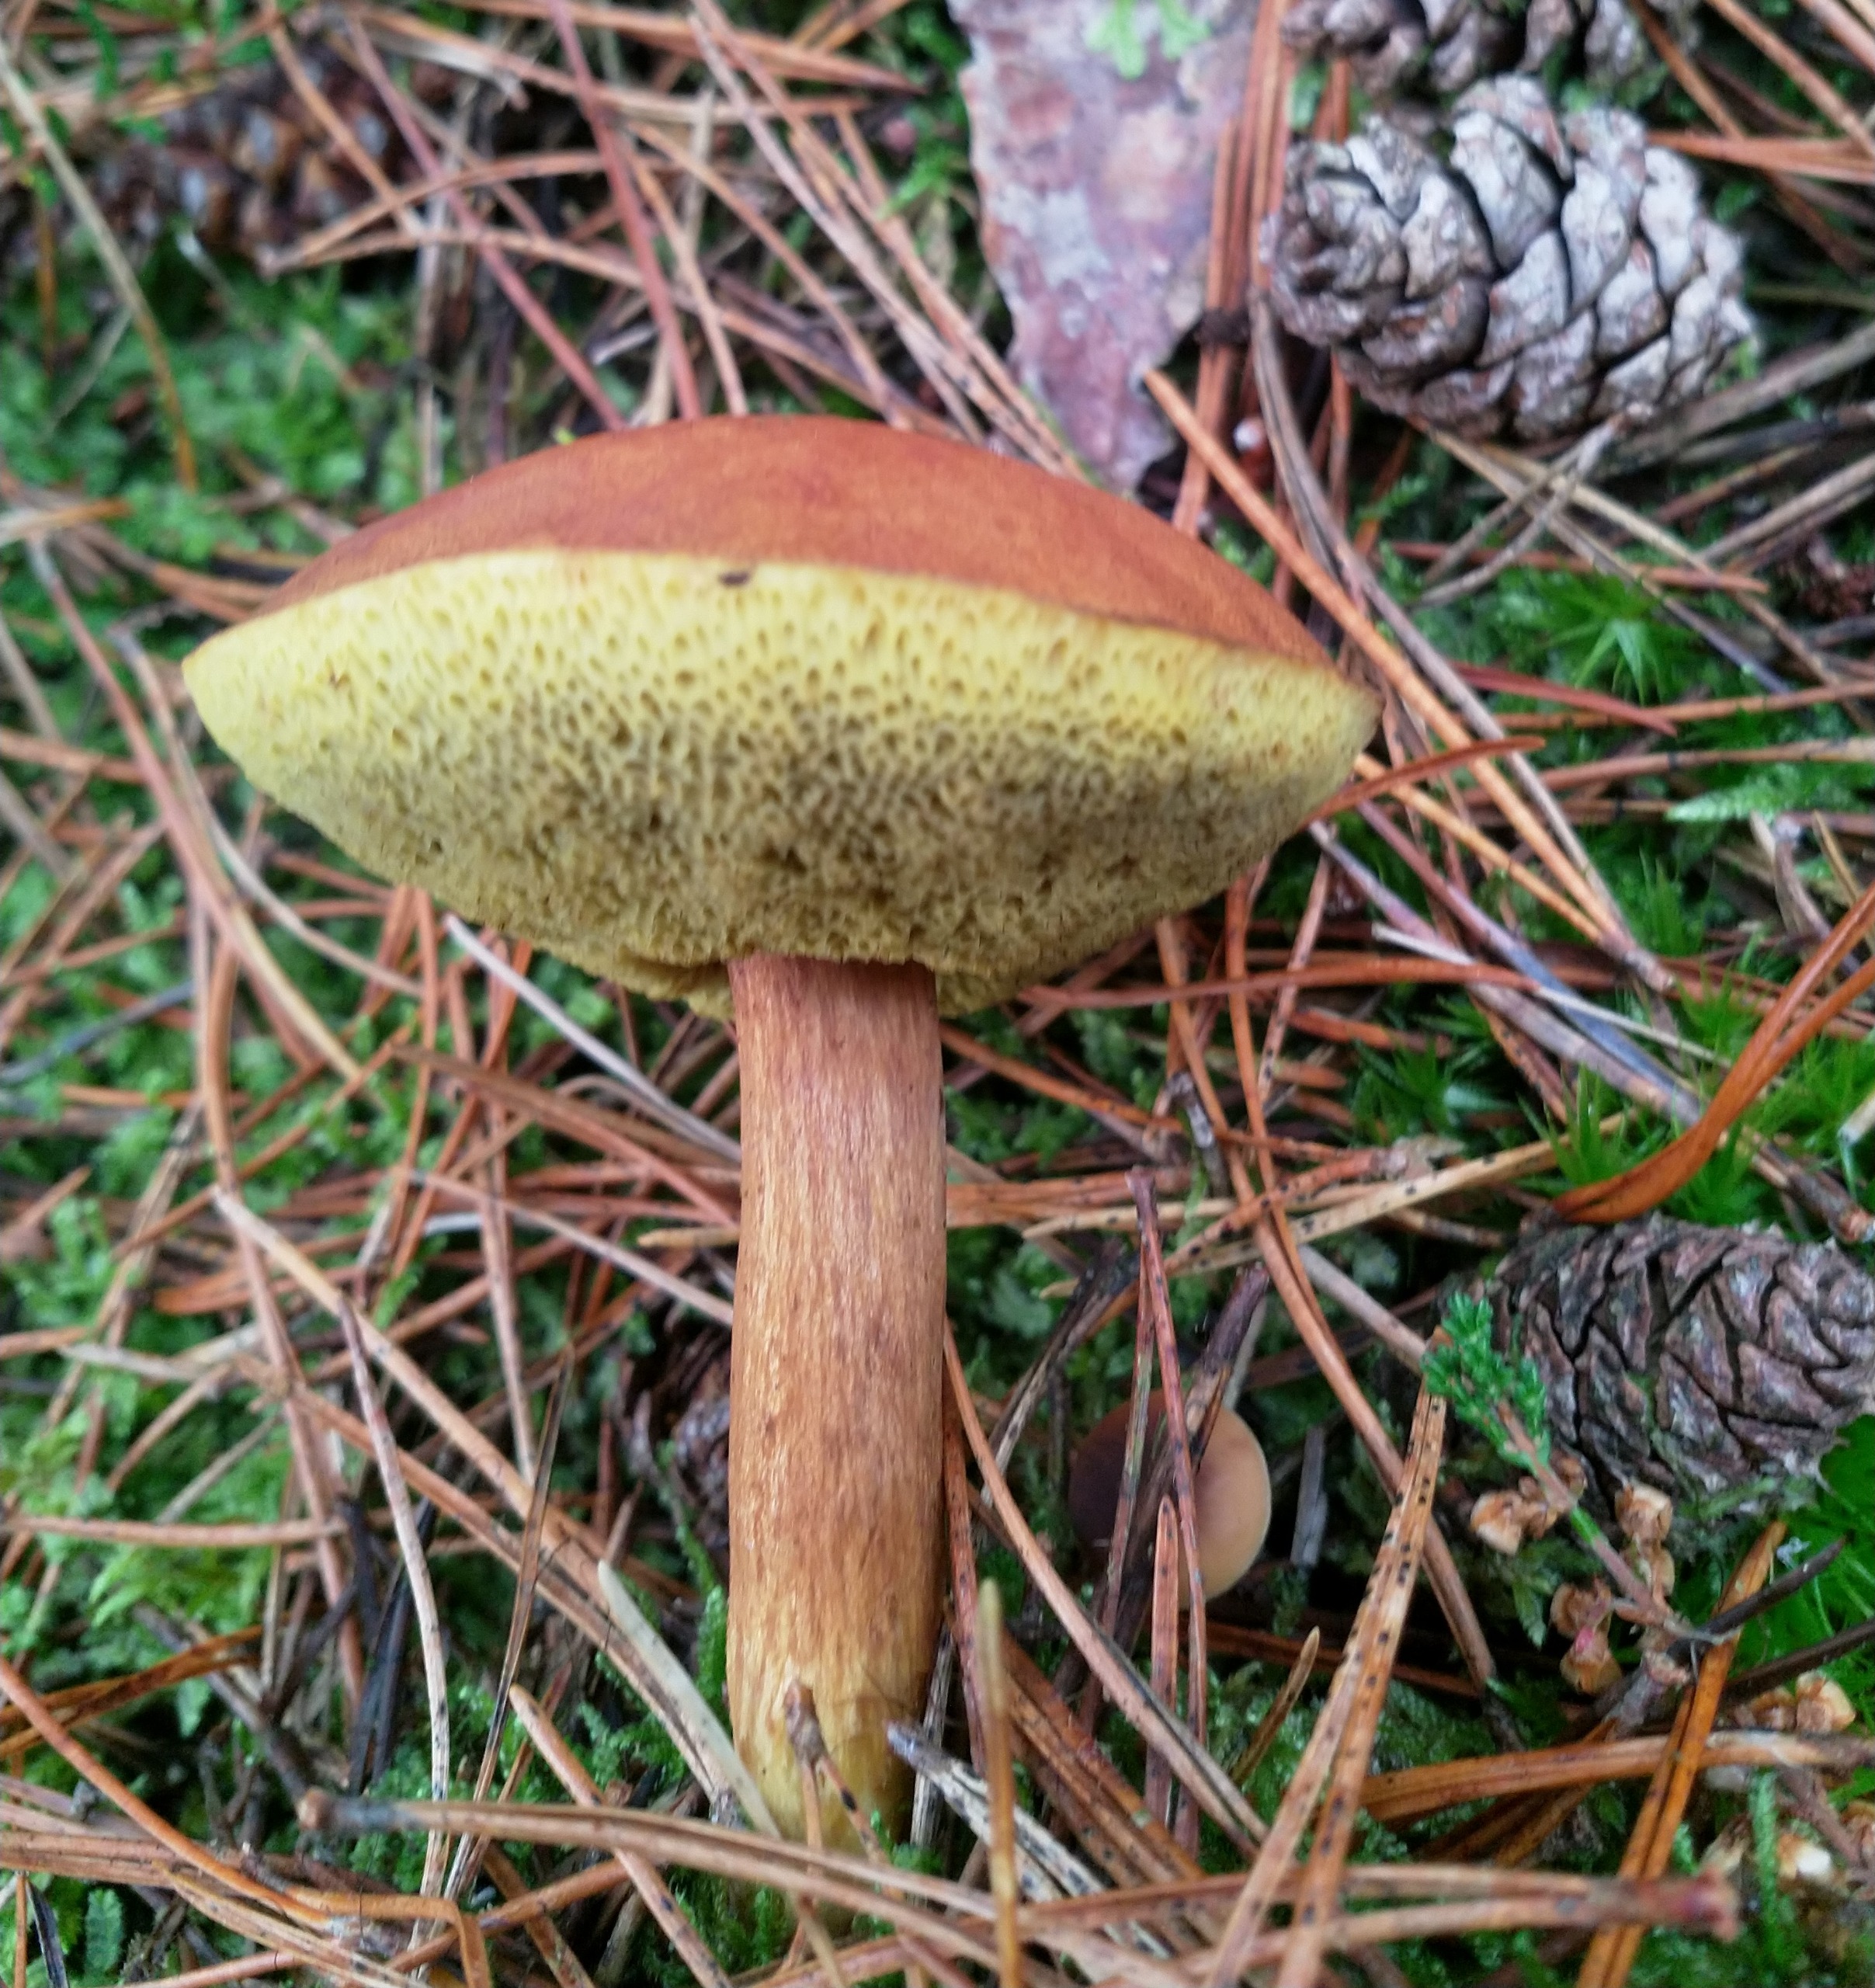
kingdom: Fungi
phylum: Basidiomycota
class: Agaricomycetes
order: Boletales
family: Boletaceae
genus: Imleria
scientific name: Imleria badia
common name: Brunstokket rørhat
